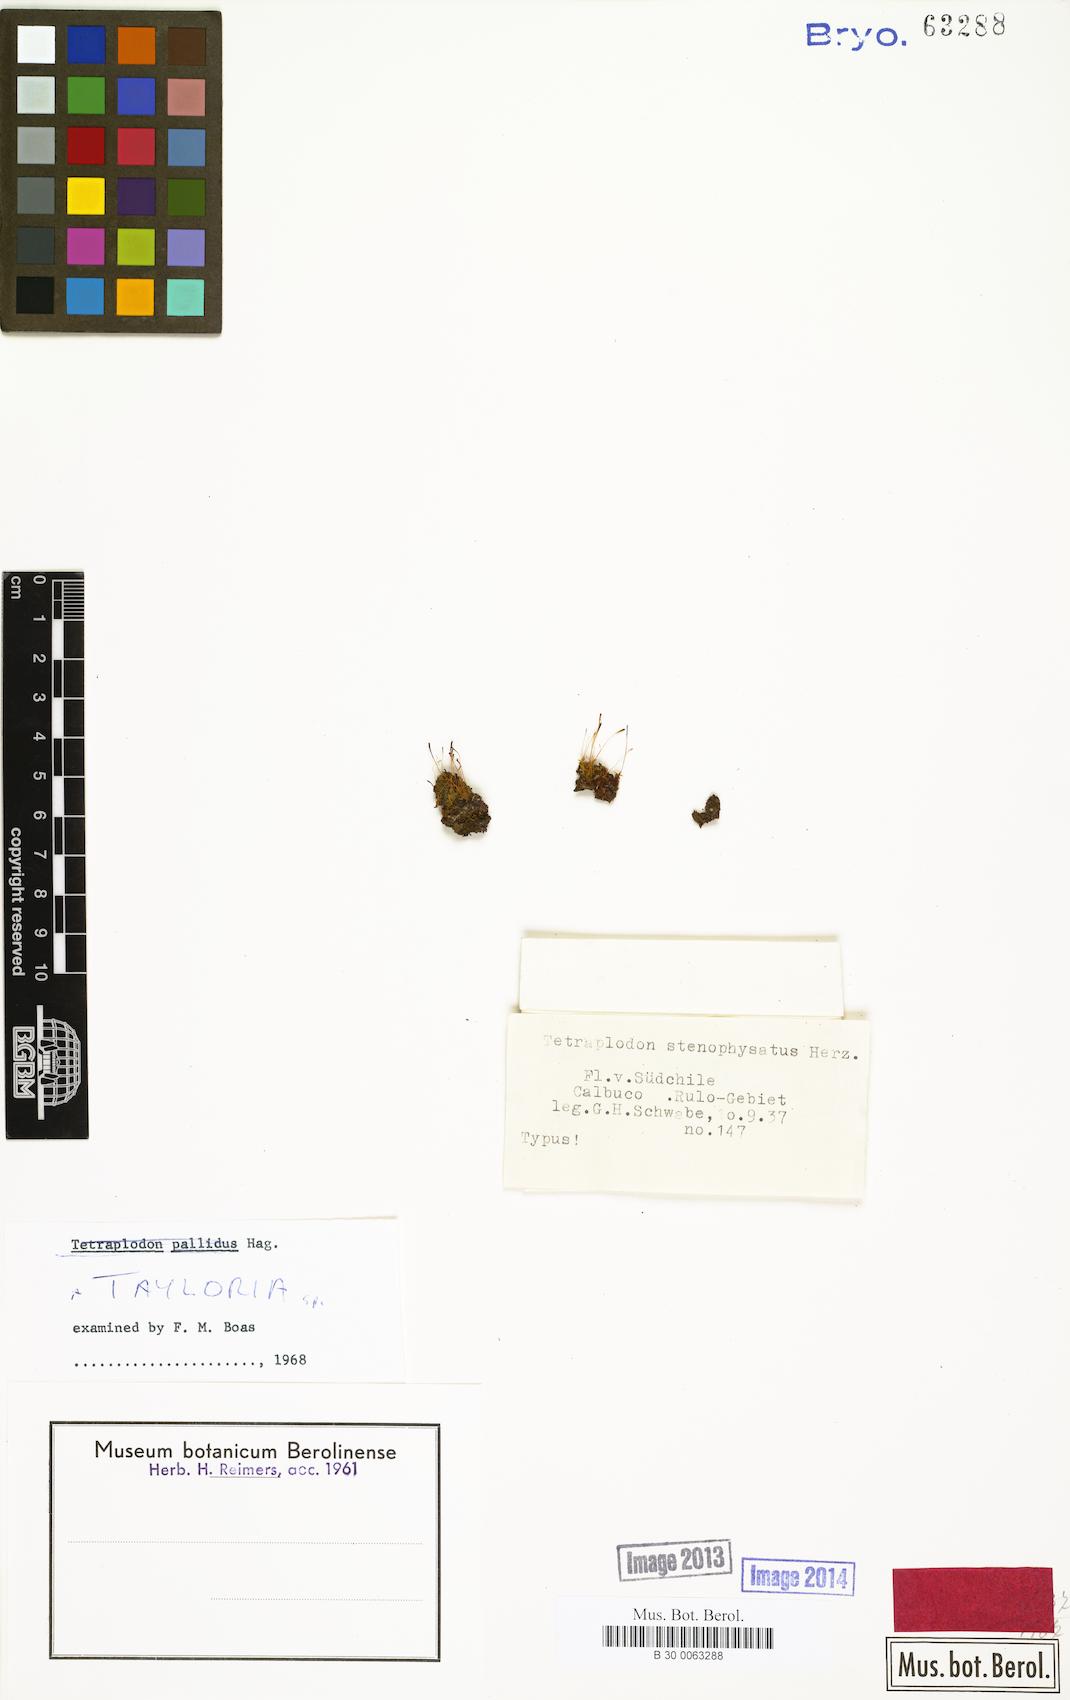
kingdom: Plantae
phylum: Bryophyta
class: Bryopsida
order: Splachnales
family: Splachnaceae
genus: Tayloria
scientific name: Tayloria
